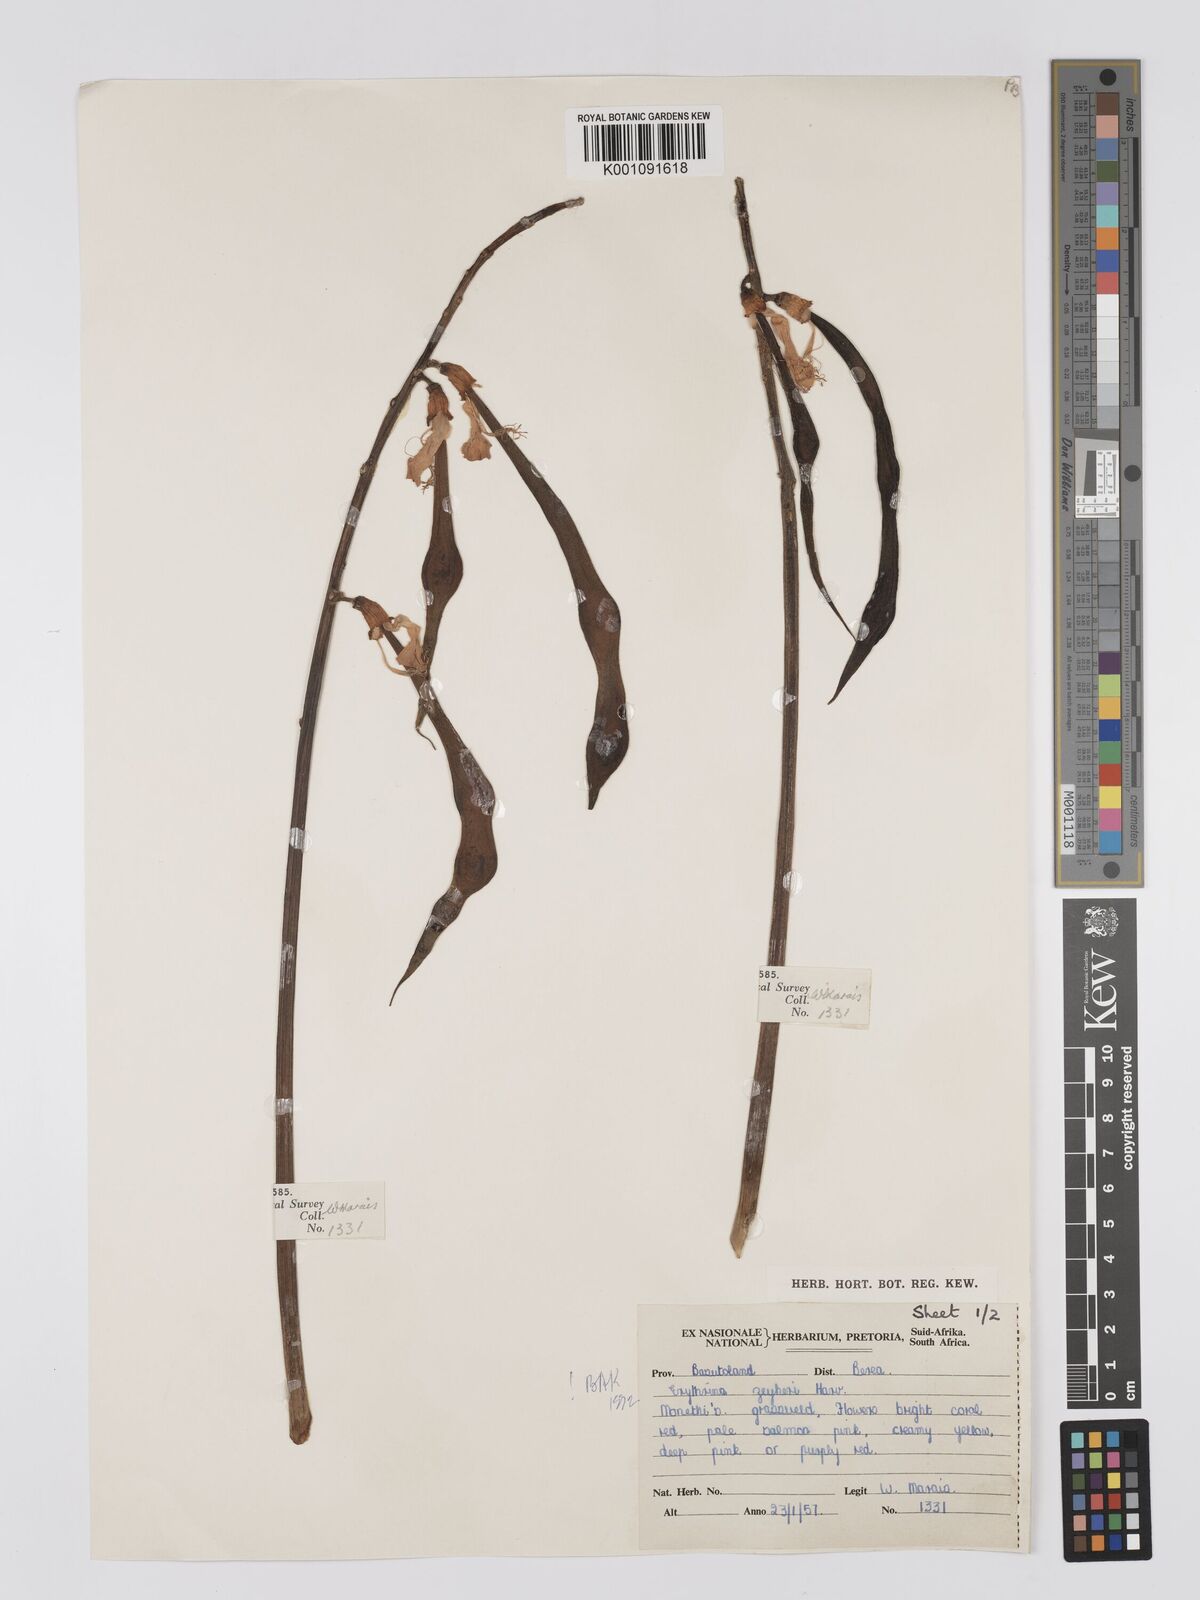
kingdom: Plantae
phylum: Tracheophyta
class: Magnoliopsida
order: Fabales
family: Fabaceae
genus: Erythrina
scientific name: Erythrina zeyheri
